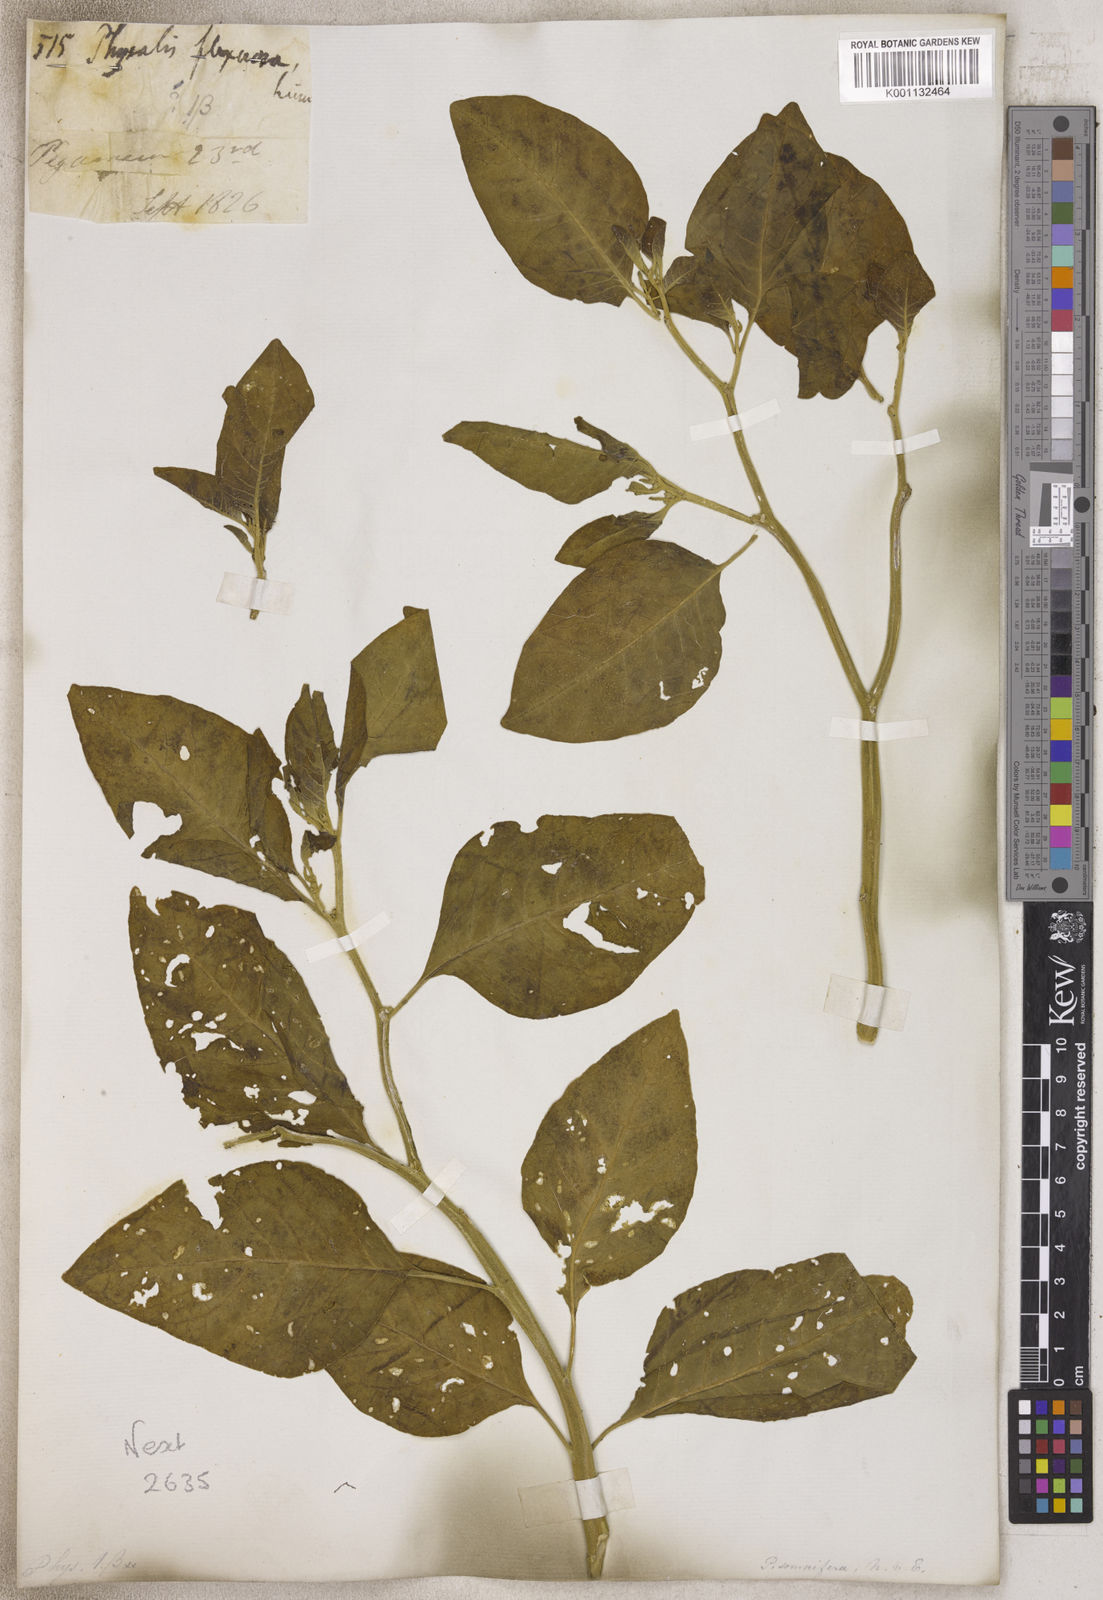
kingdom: Plantae
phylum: Tracheophyta
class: Magnoliopsida
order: Solanales
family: Solanaceae
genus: Physalis
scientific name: Physalis
